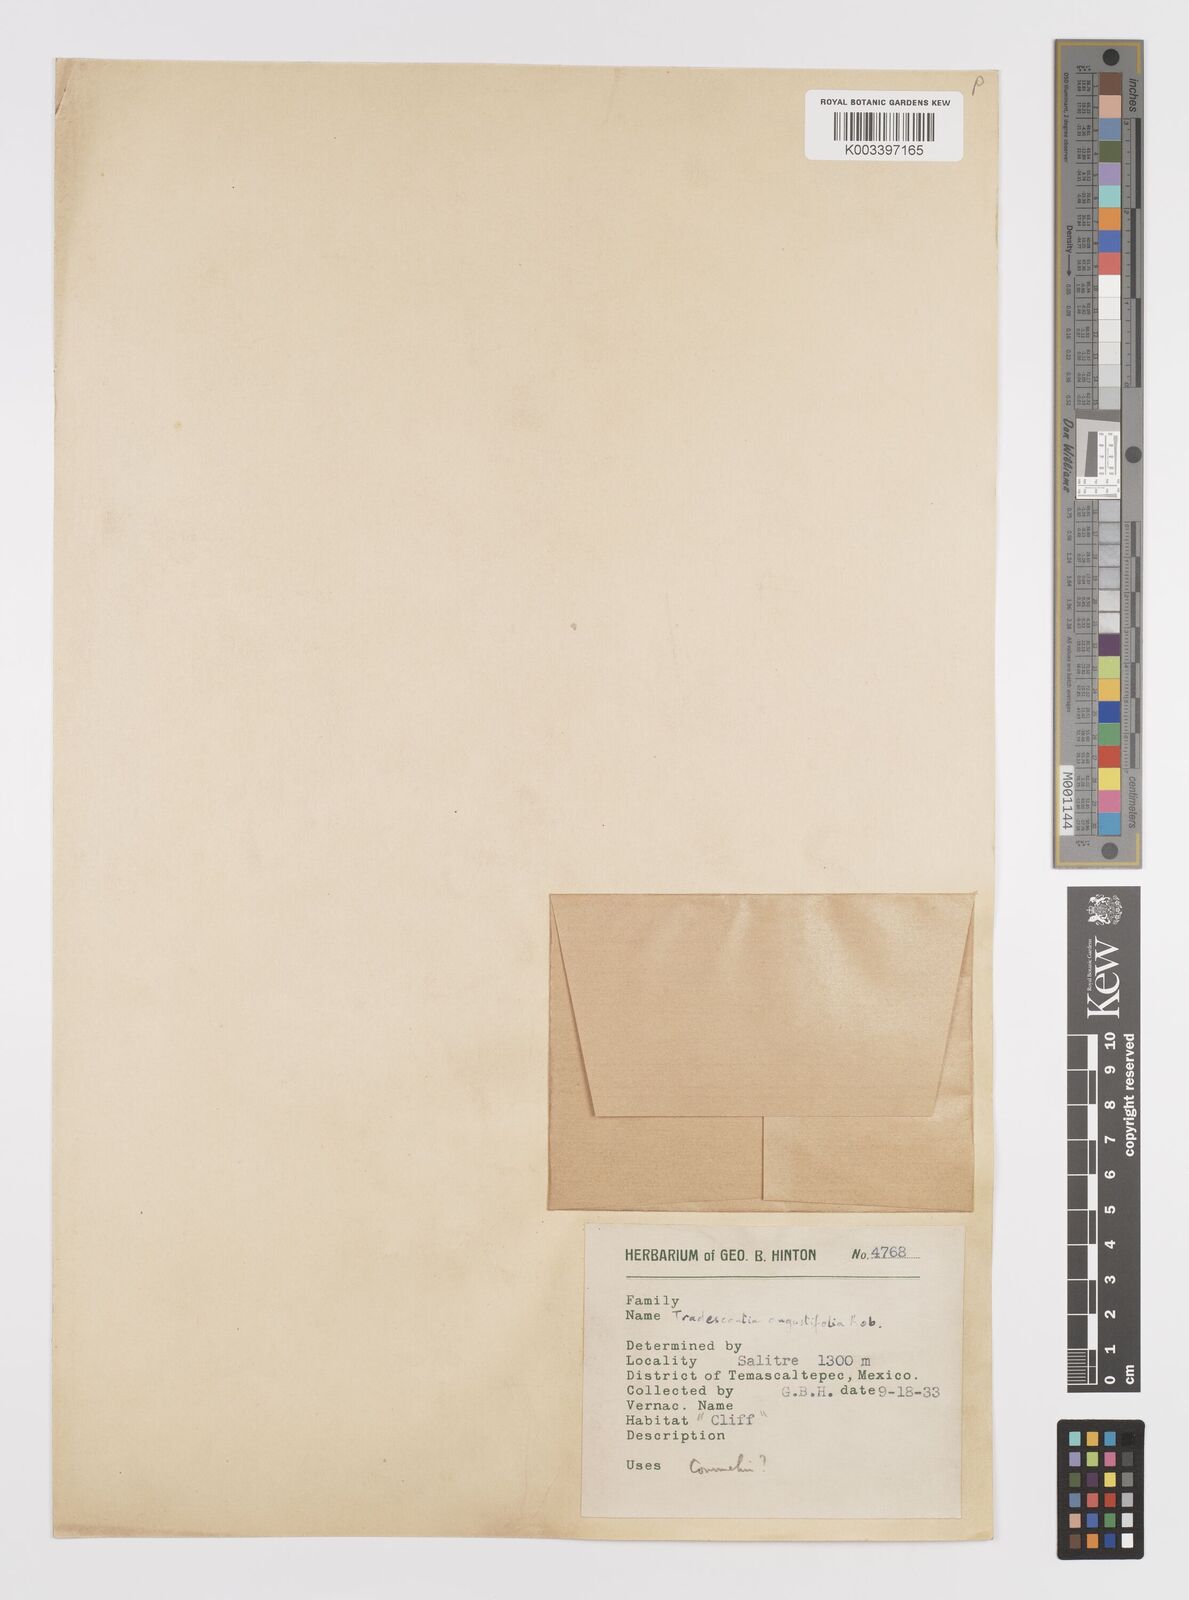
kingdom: Plantae
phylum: Tracheophyta
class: Liliopsida
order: Commelinales
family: Commelinaceae
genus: Callisia
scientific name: Callisia angustifolia
